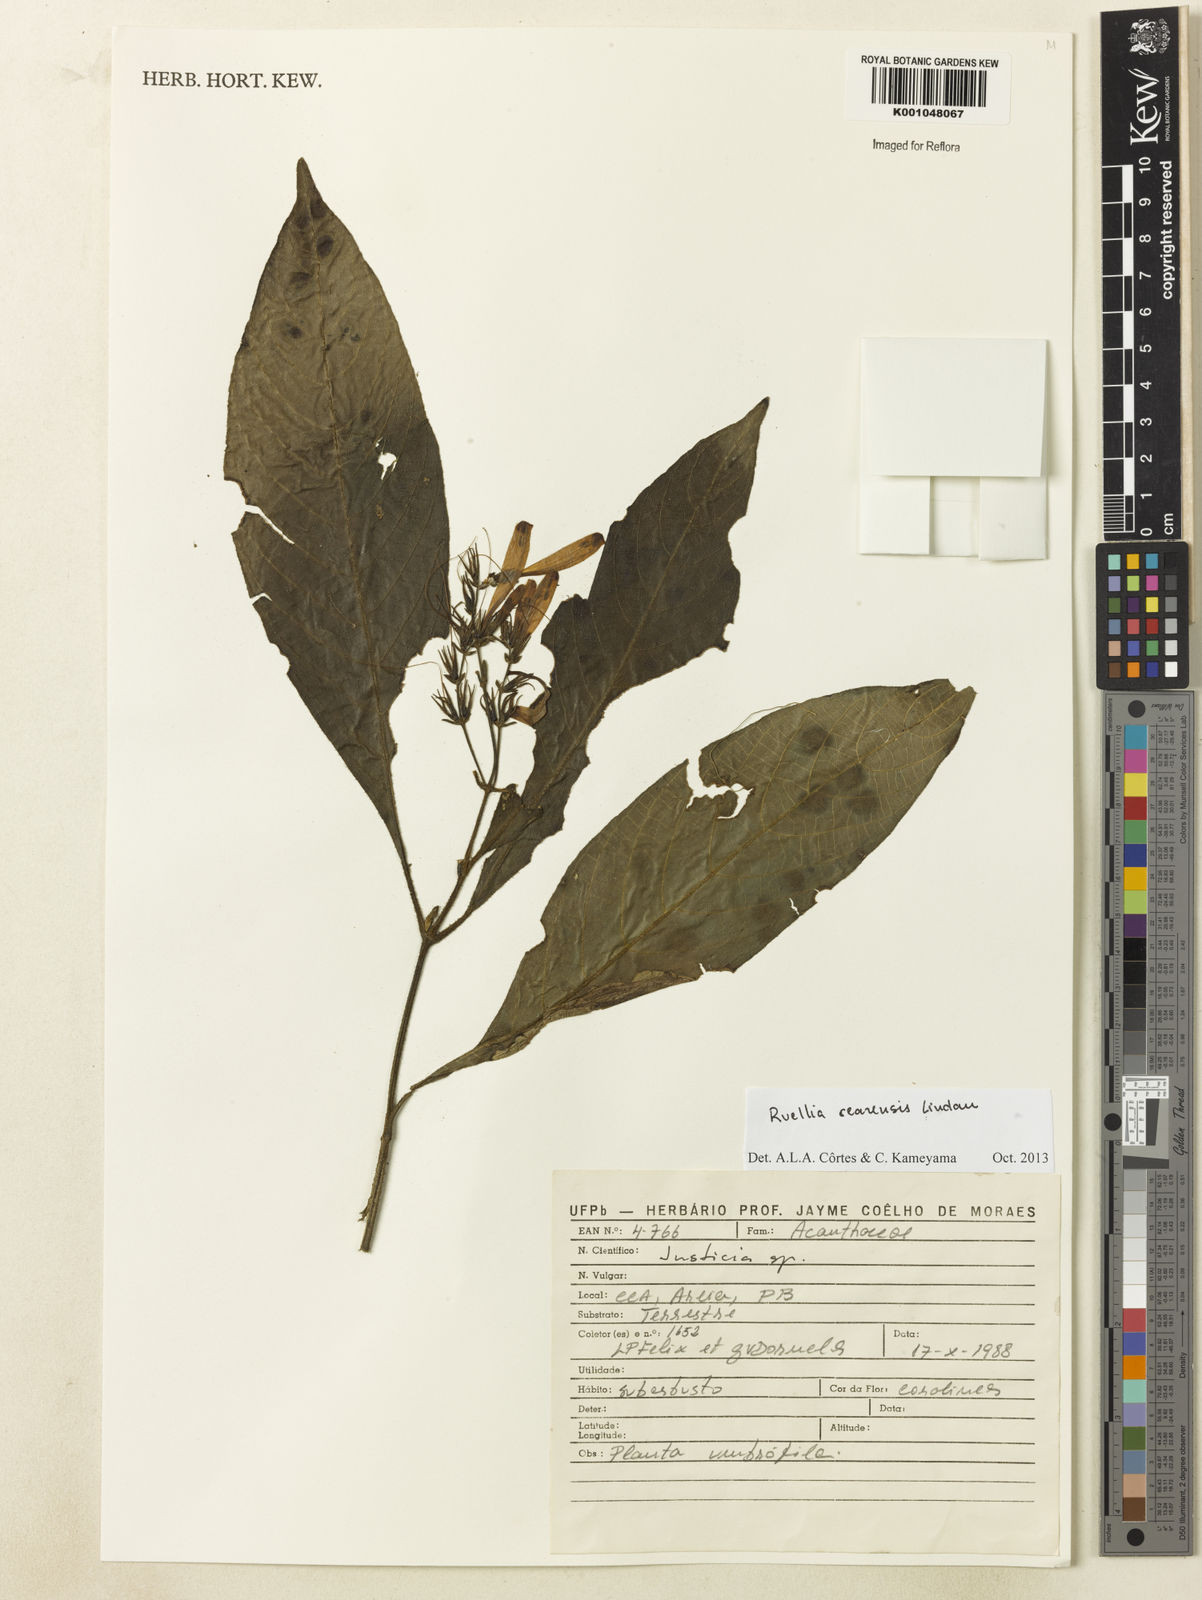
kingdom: Plantae
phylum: Tracheophyta
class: Magnoliopsida
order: Lamiales
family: Acanthaceae
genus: Ruellia
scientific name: Ruellia cearensis
